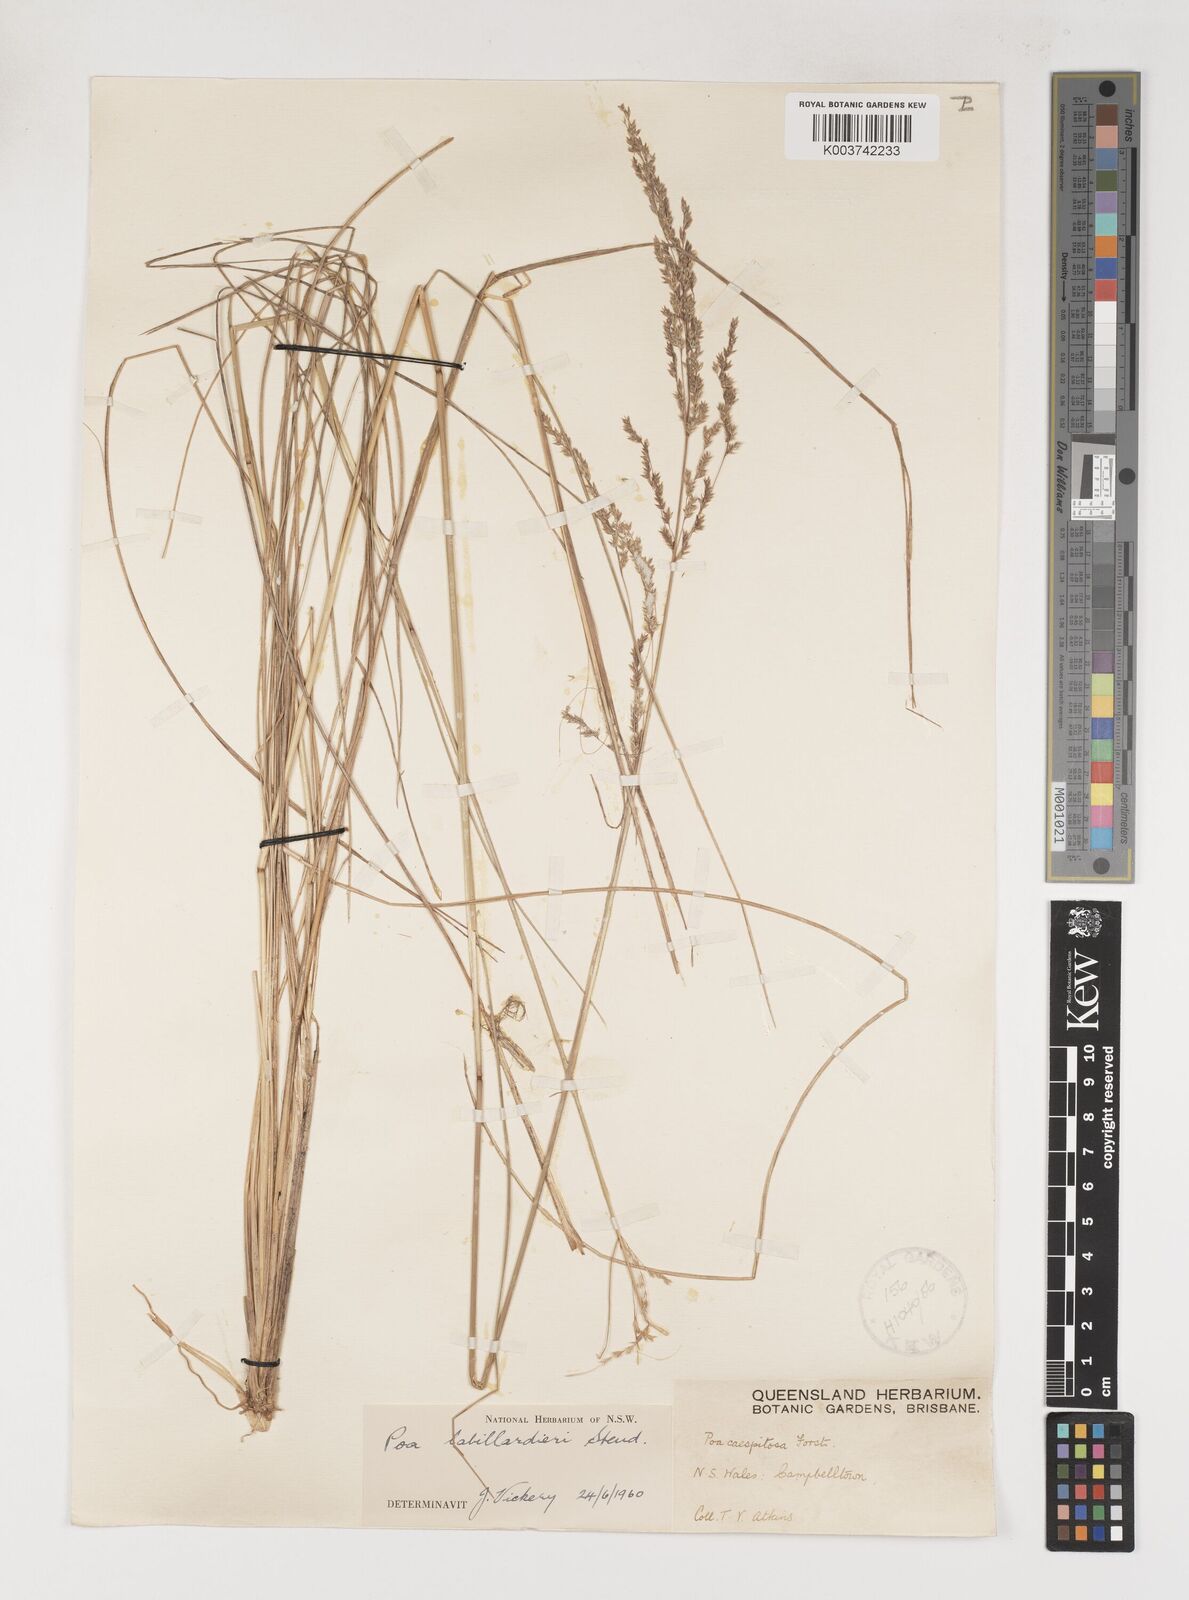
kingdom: Plantae
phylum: Tracheophyta
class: Liliopsida
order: Poales
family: Poaceae
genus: Poa
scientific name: Poa labillardierei
